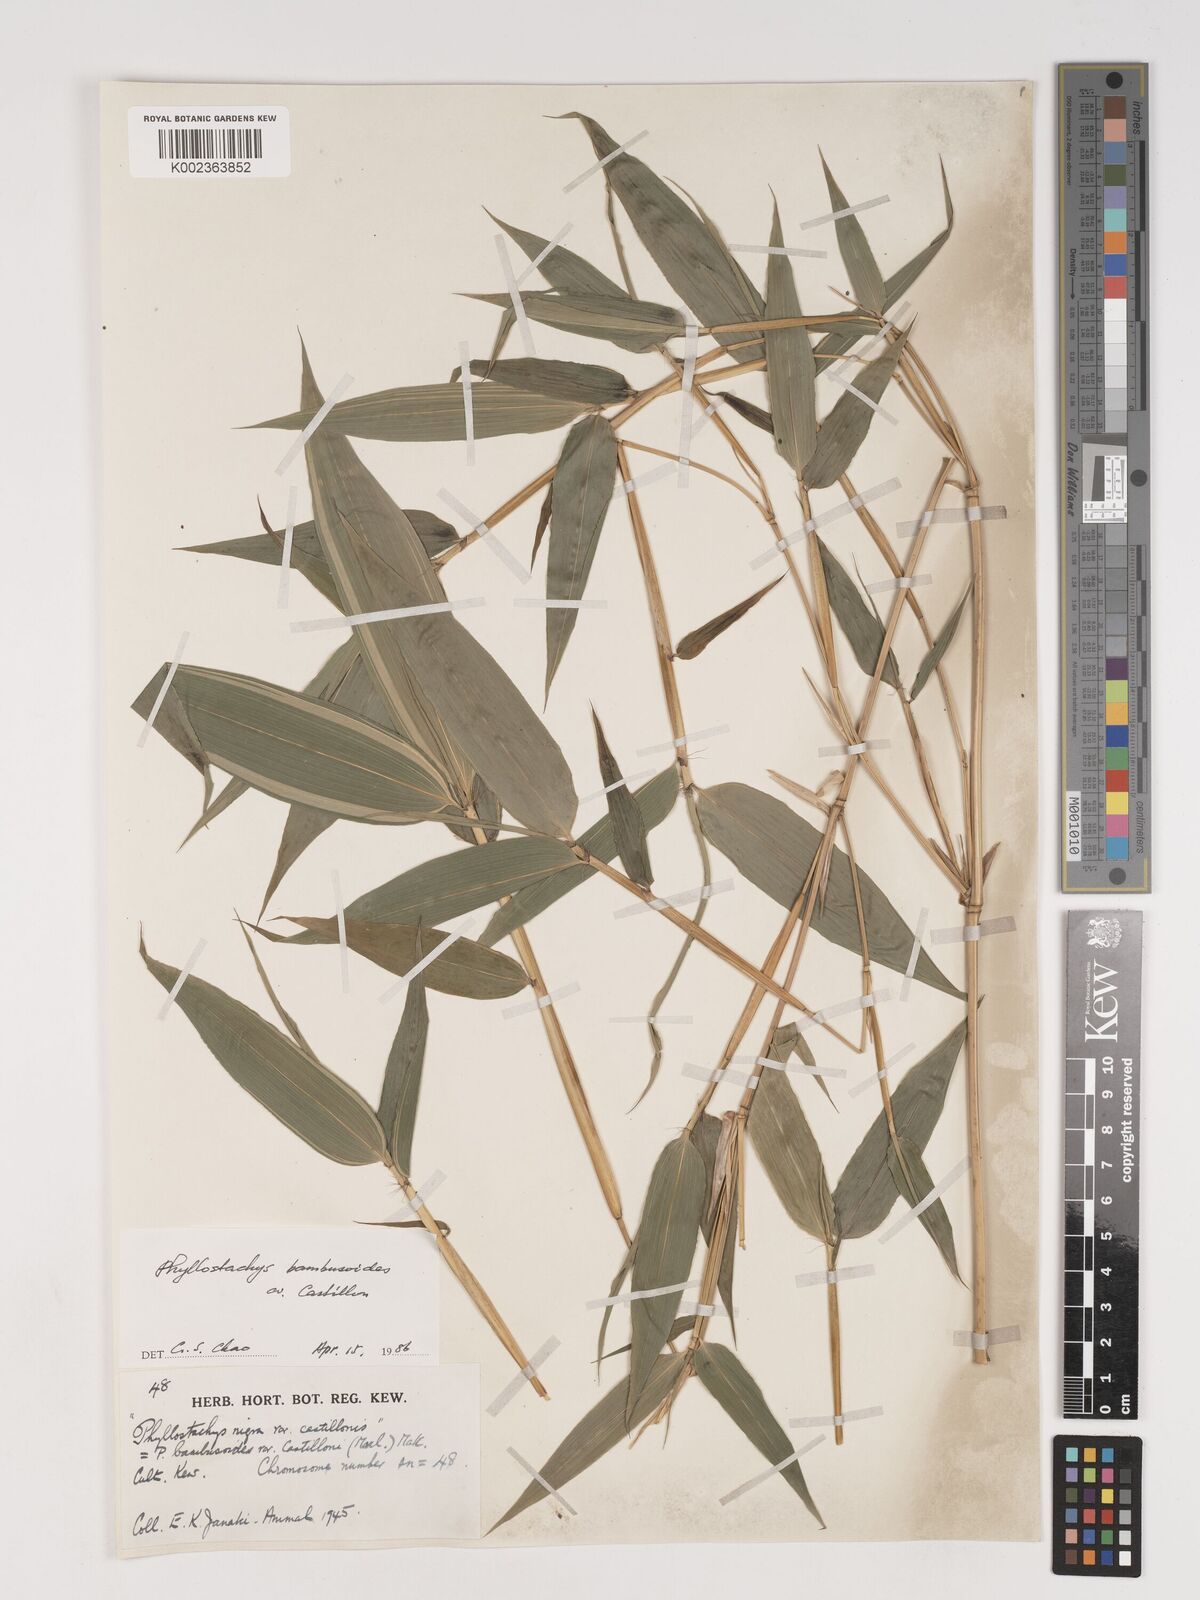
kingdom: Plantae
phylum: Tracheophyta
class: Liliopsida
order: Poales
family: Poaceae
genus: Phyllostachys
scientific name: Phyllostachys reticulata
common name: Bamboo
